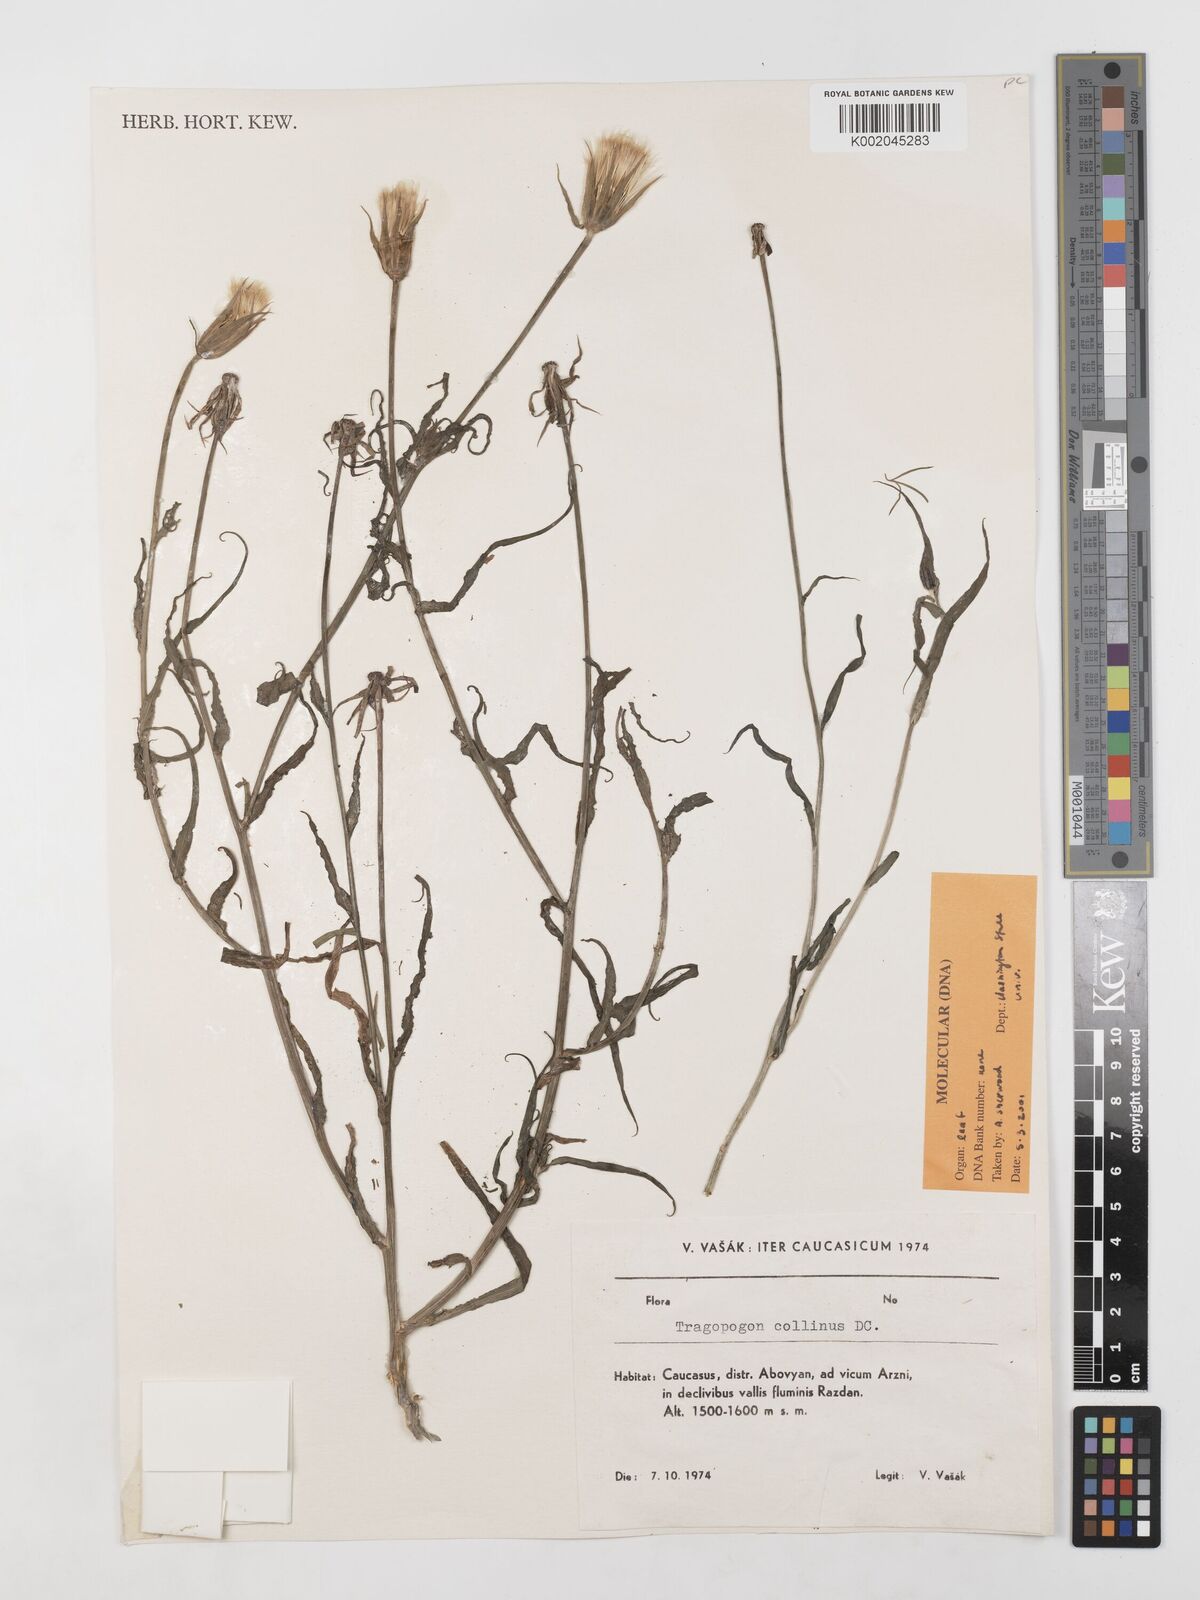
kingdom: Plantae
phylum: Tracheophyta
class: Magnoliopsida
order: Asterales
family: Asteraceae
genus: Tragopogon
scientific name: Tragopogon collinus
